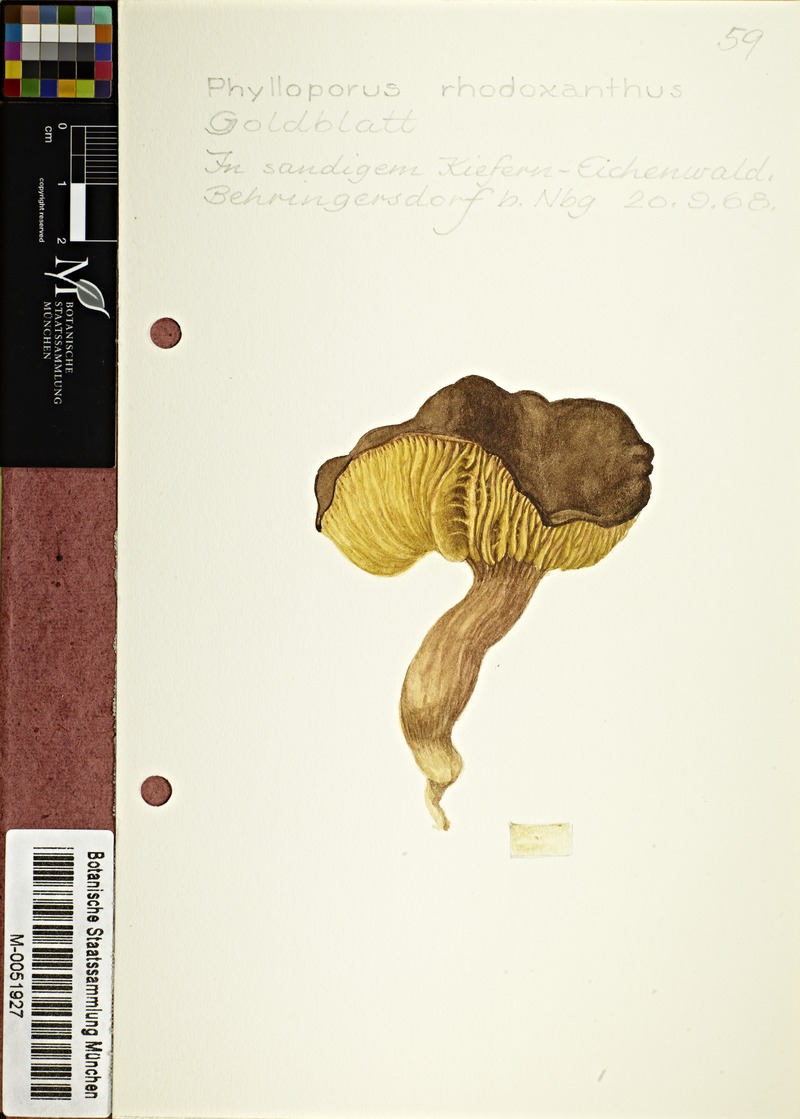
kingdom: Fungi
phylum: Basidiomycota
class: Agaricomycetes
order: Boletales
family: Boletaceae
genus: Phylloporus
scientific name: Phylloporus rhodoxanthus
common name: Golden gilled bolete
